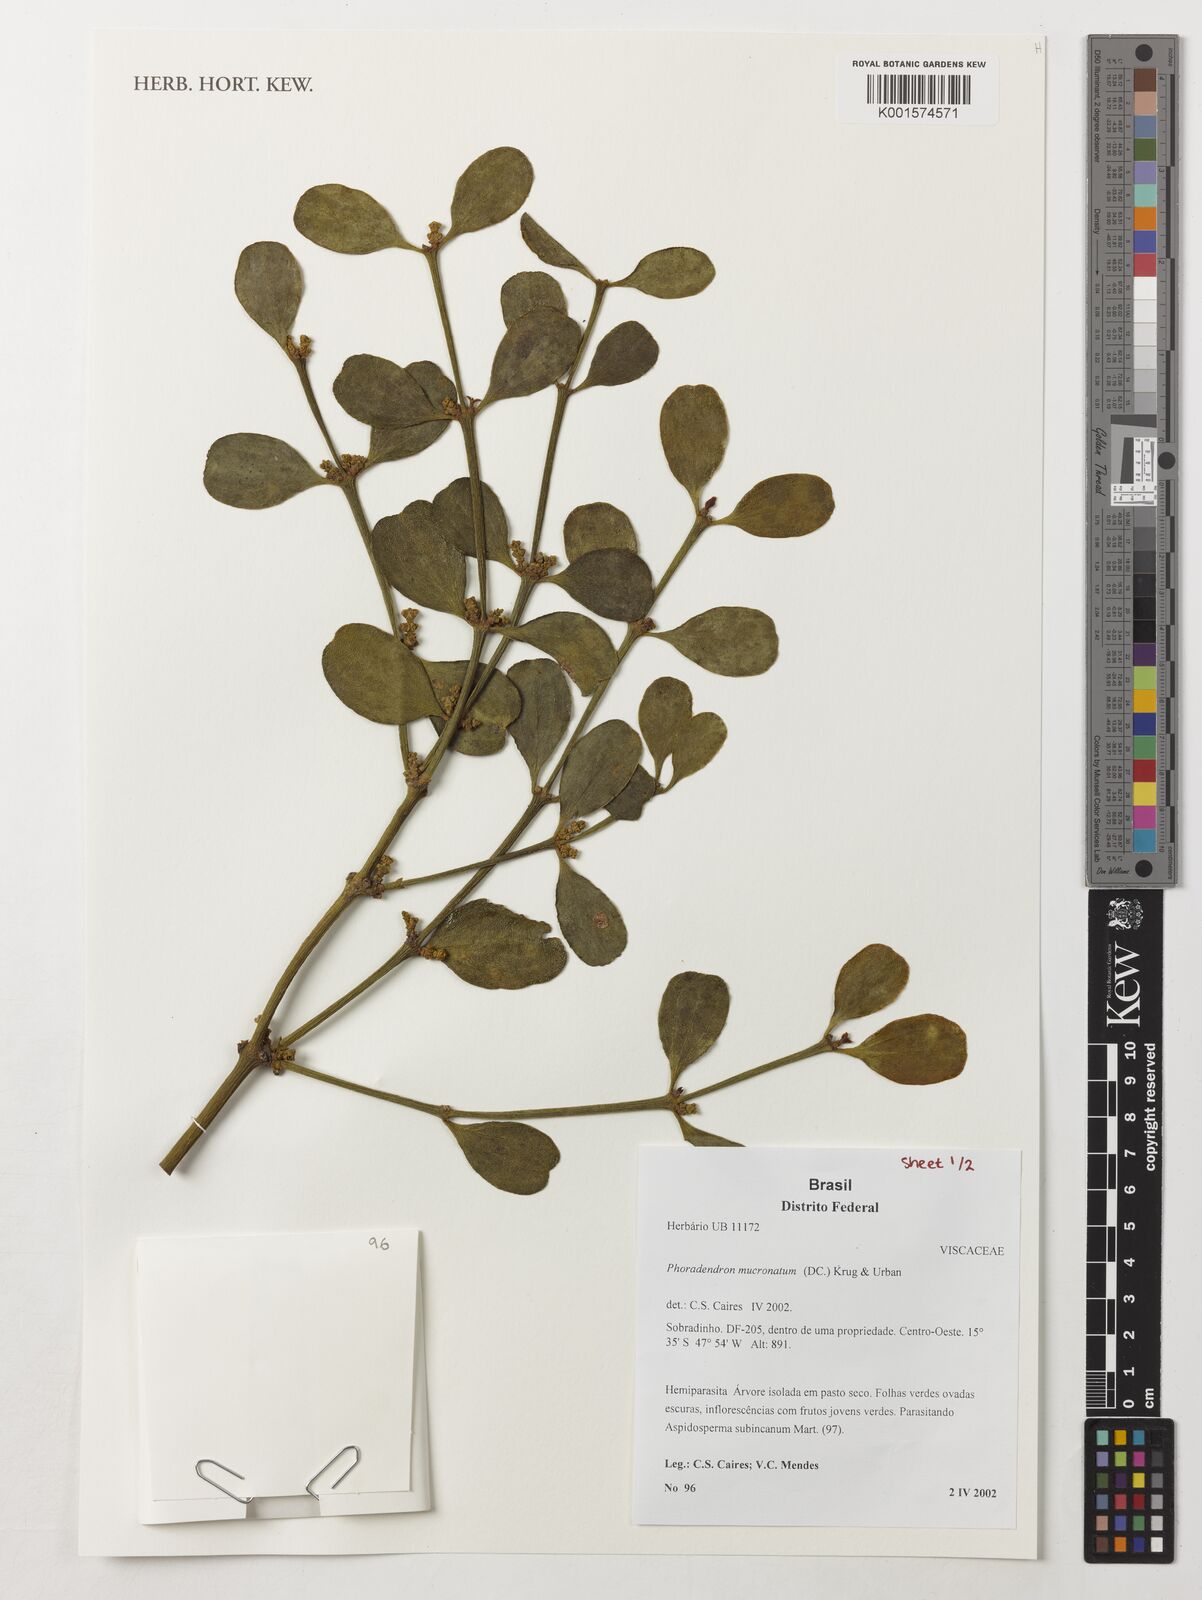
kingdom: Plantae
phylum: Tracheophyta
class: Magnoliopsida
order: Santalales
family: Viscaceae
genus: Phoradendron
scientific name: Phoradendron mucronatum
